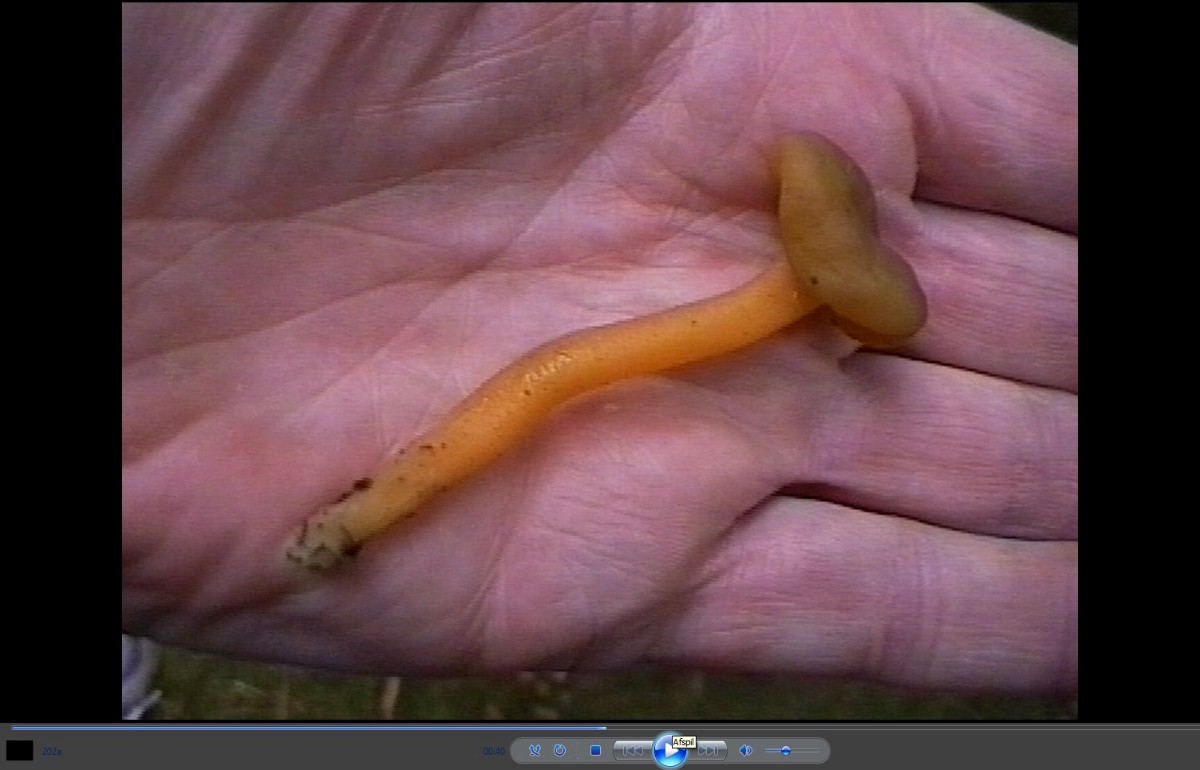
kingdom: Fungi
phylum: Ascomycota
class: Leotiomycetes
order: Leotiales
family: Leotiaceae
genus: Leotia
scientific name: Leotia lubrica
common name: ravsvamp
